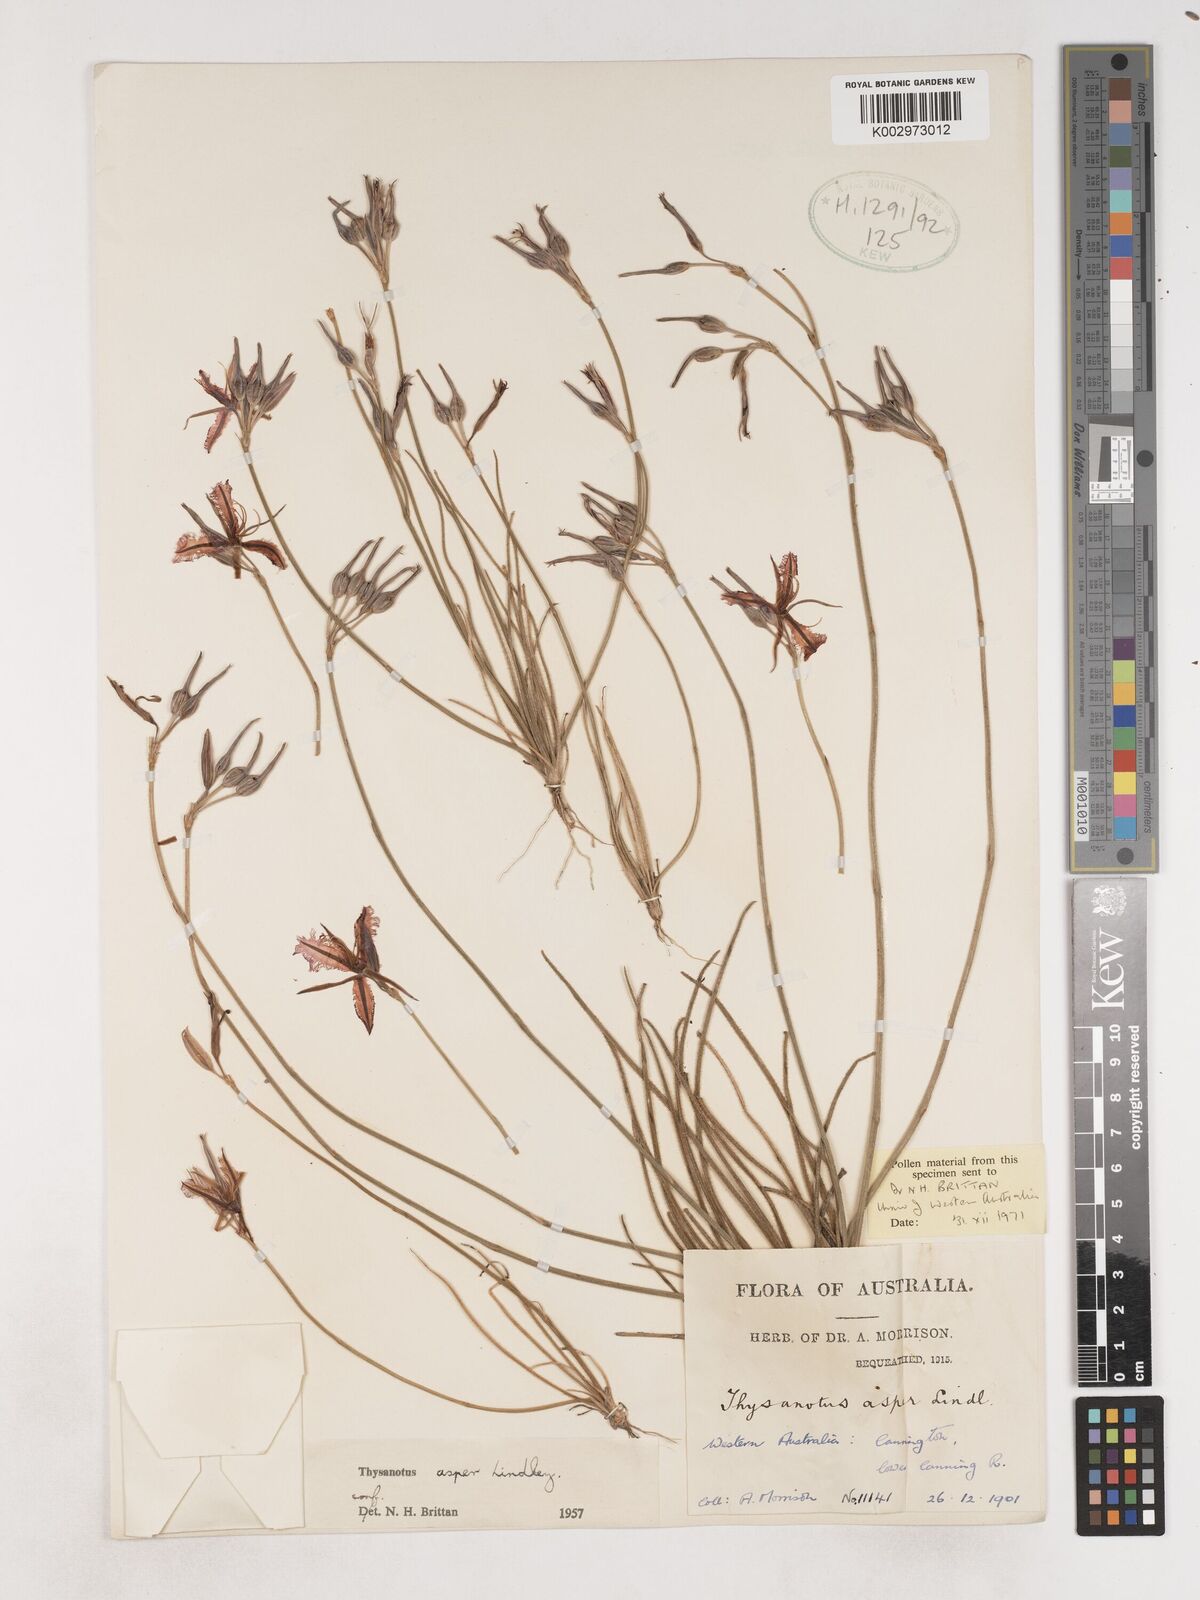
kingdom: Plantae
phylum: Tracheophyta
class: Liliopsida
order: Asparagales
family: Asparagaceae
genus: Thysanotus
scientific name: Thysanotus asper
